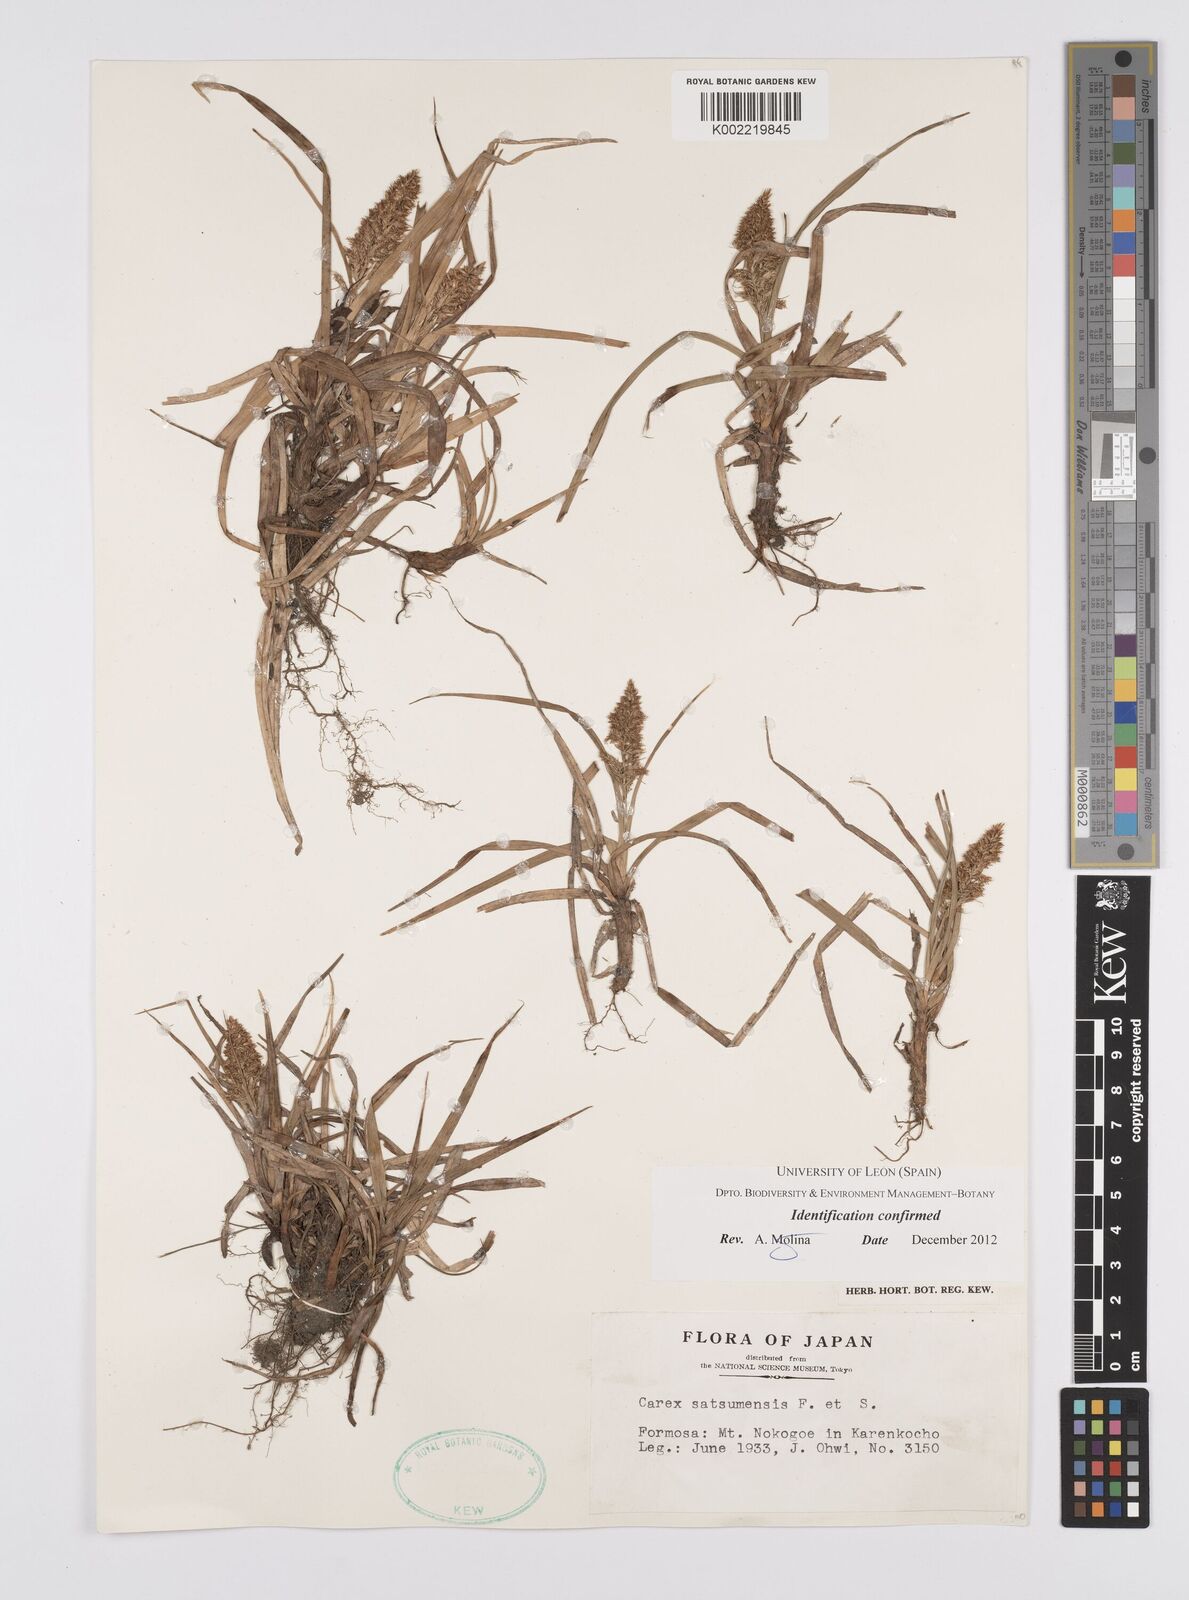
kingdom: Plantae
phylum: Tracheophyta
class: Liliopsida
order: Poales
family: Cyperaceae
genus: Carex
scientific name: Carex satsumensis
